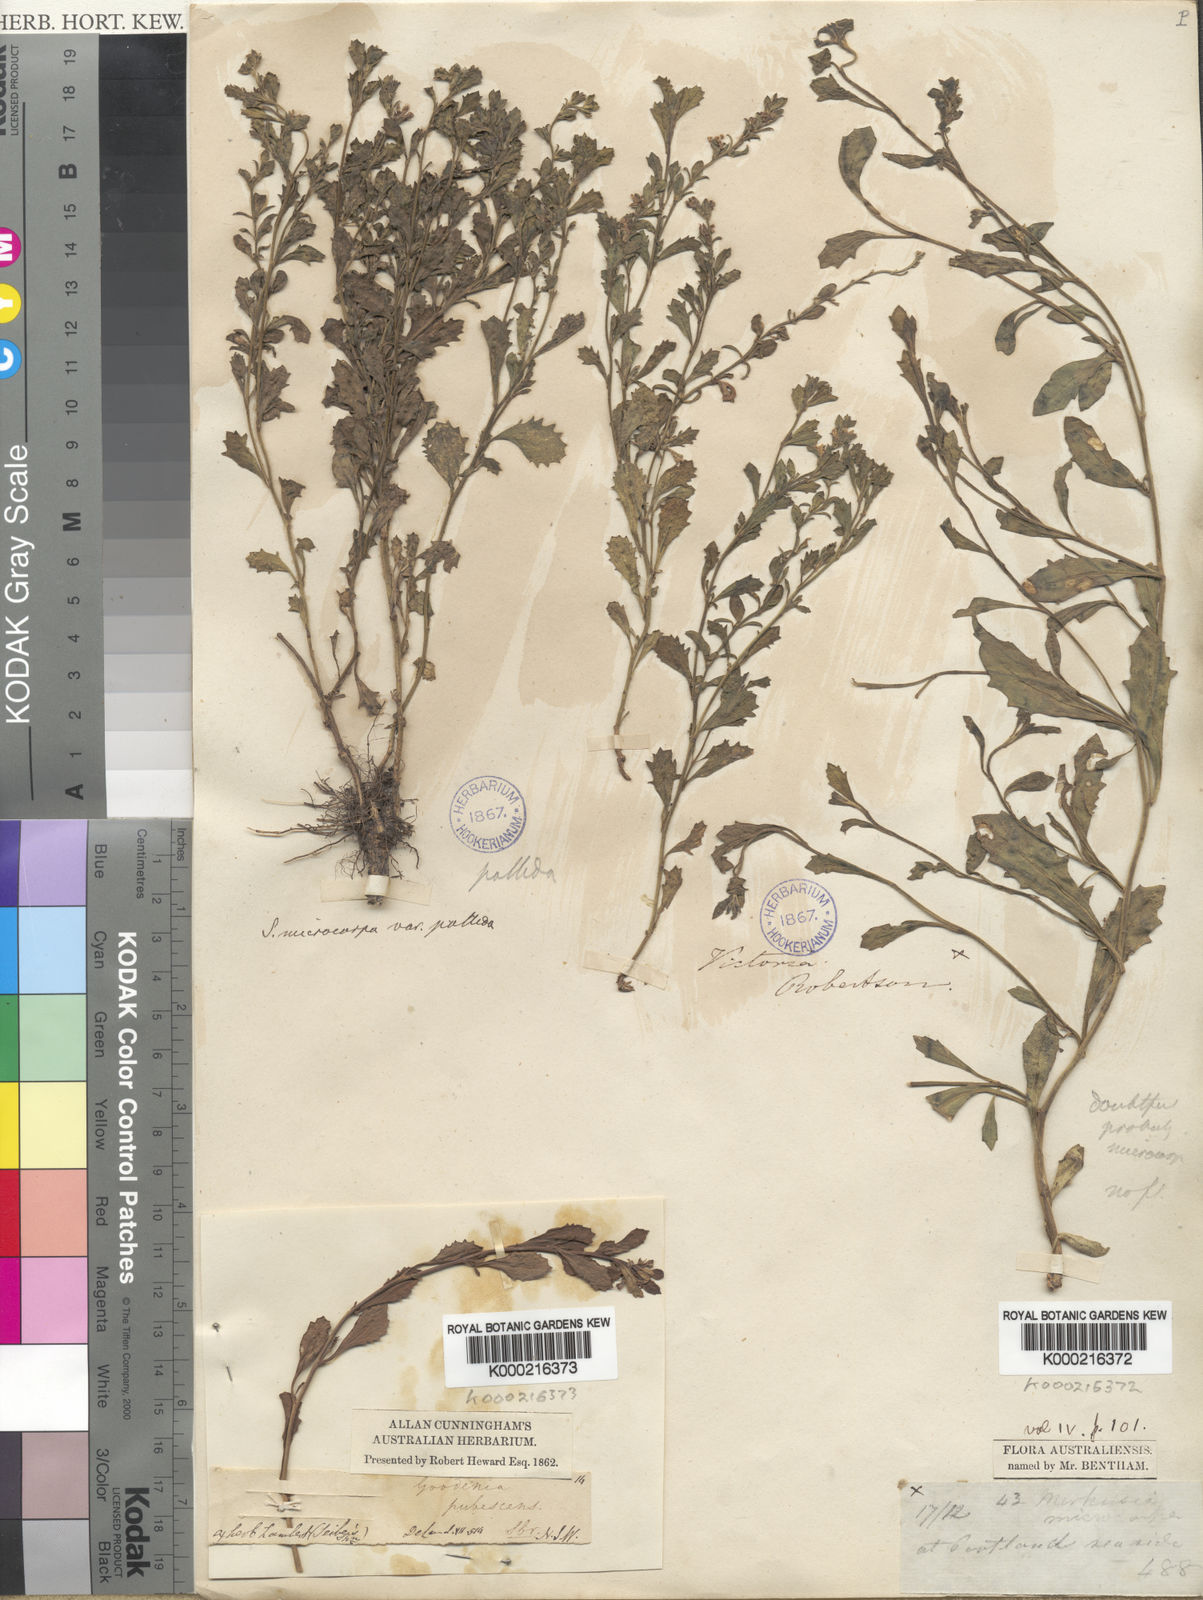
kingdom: Plantae
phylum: Tracheophyta
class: Magnoliopsida
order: Asterales
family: Goodeniaceae
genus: Scaevola
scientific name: Scaevola
